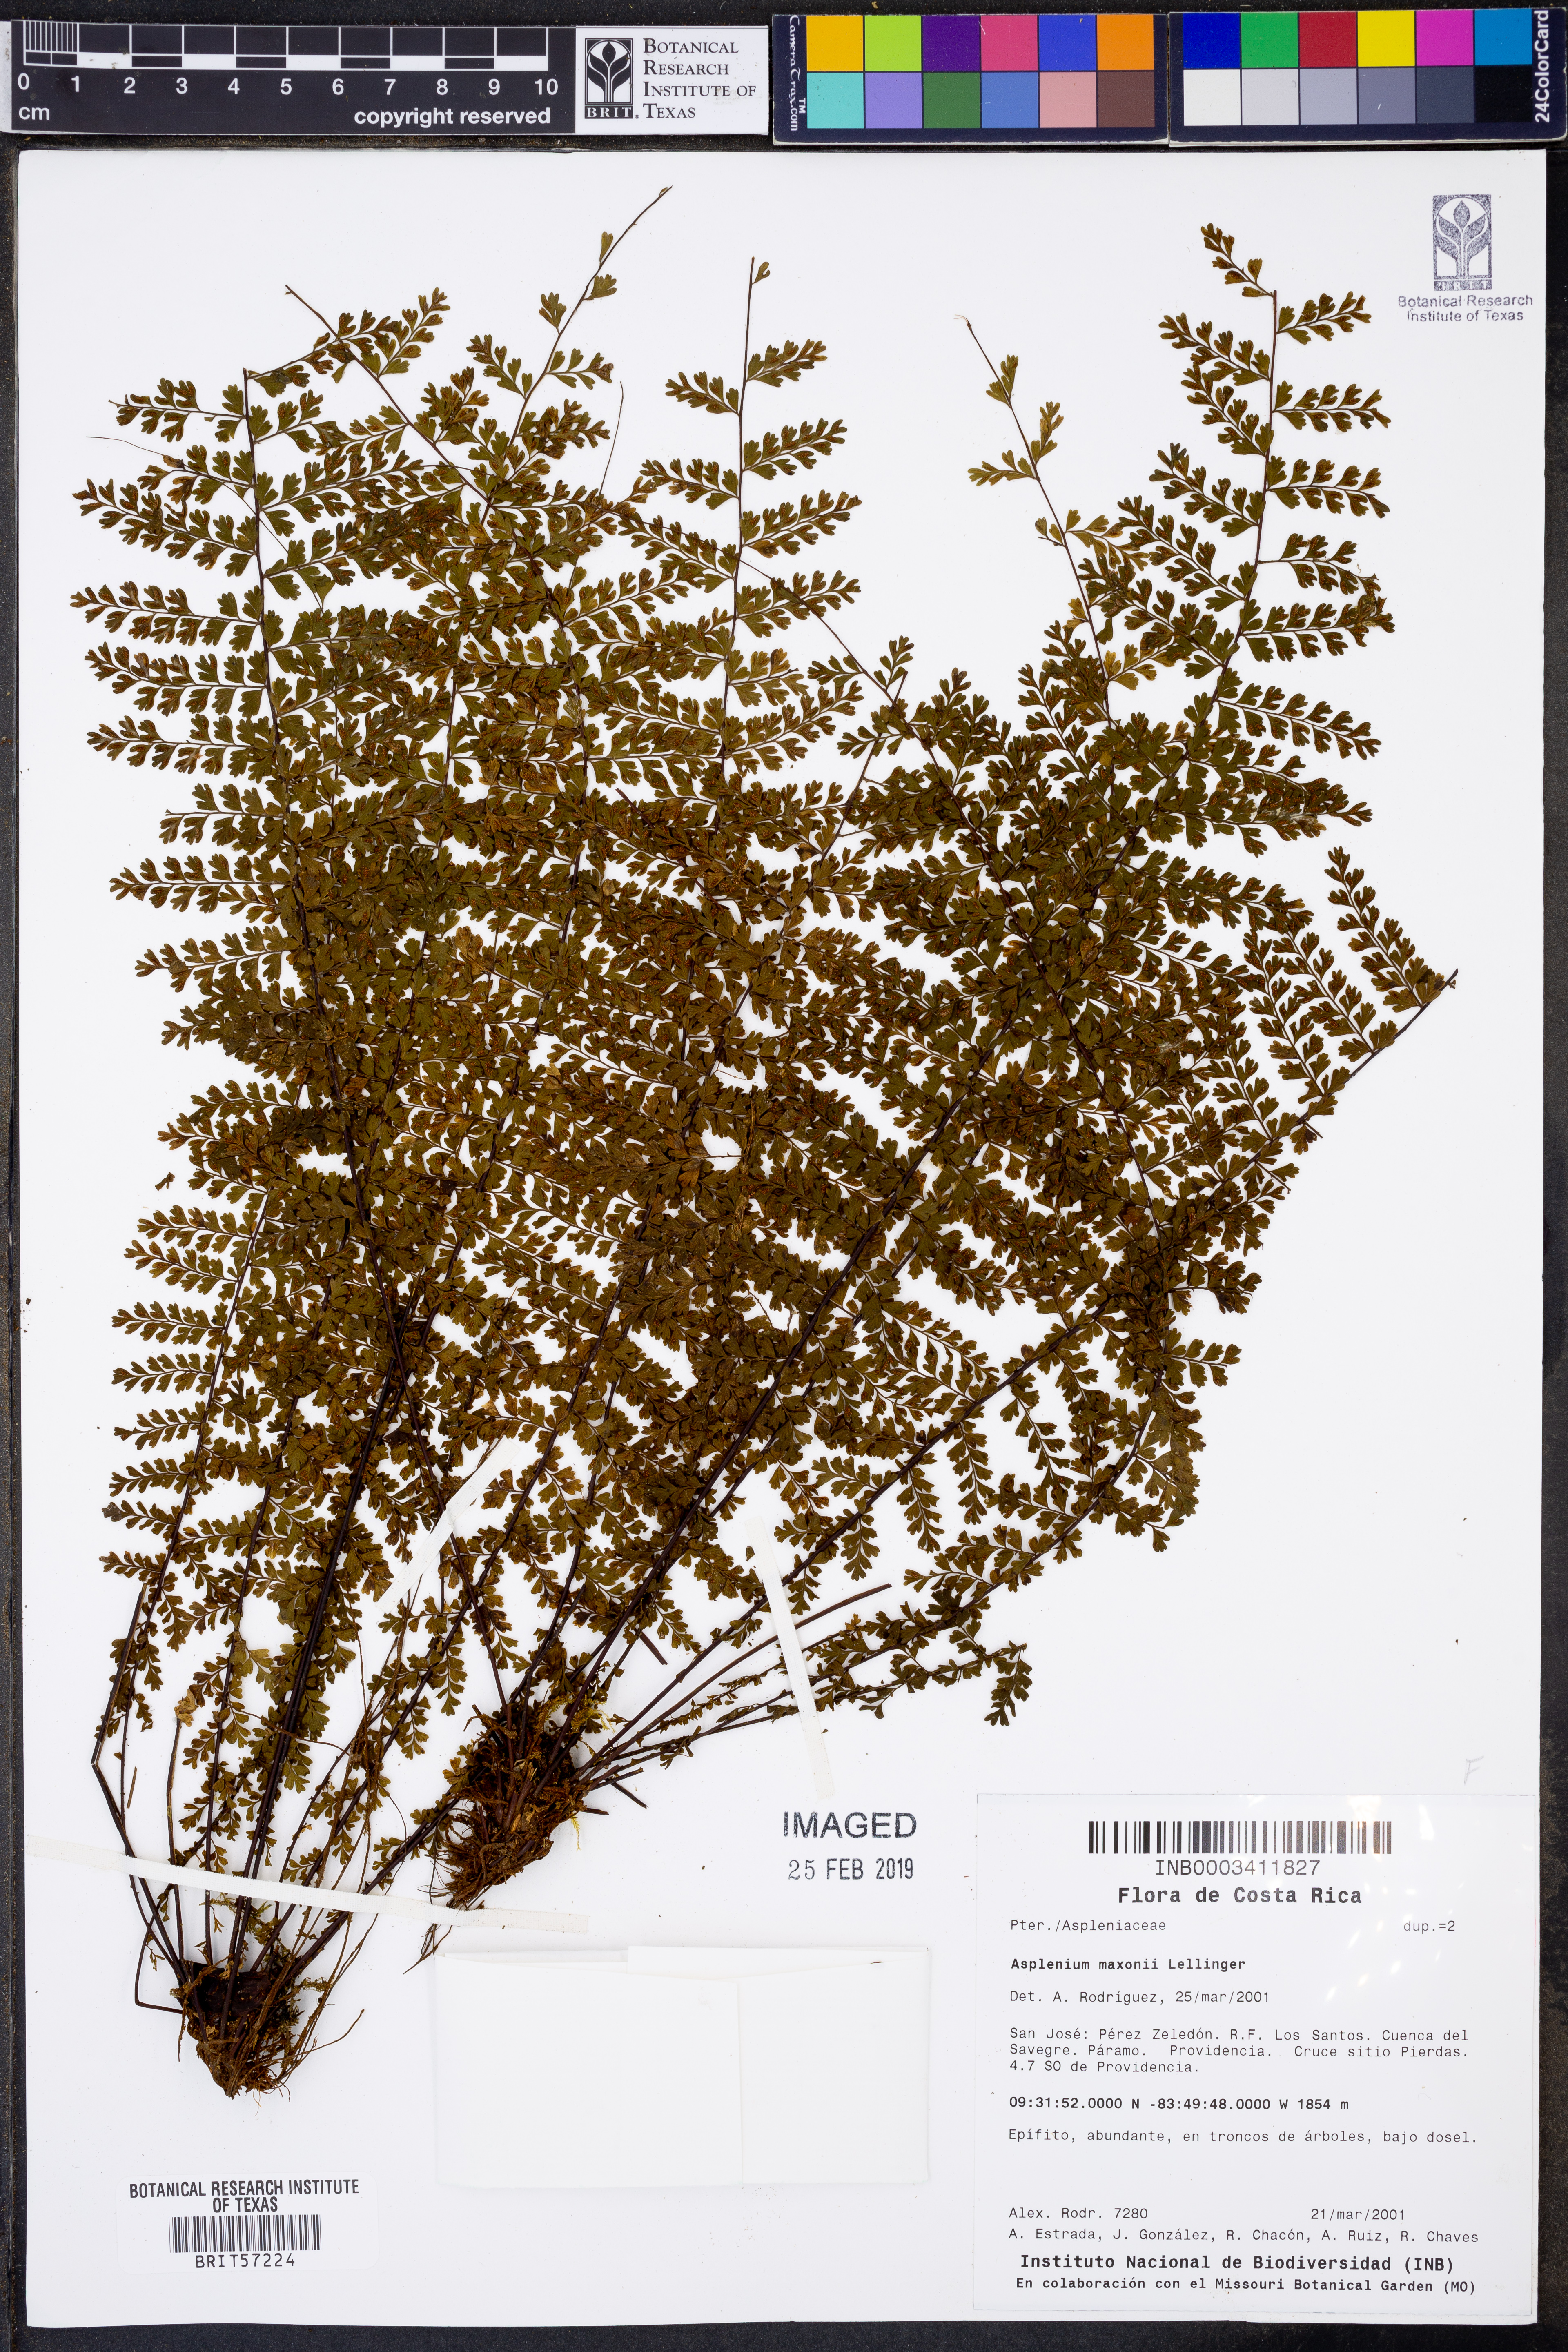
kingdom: Plantae
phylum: Tracheophyta
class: Polypodiopsida
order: Polypodiales
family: Aspleniaceae
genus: Asplenium
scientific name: Asplenium maxonii
